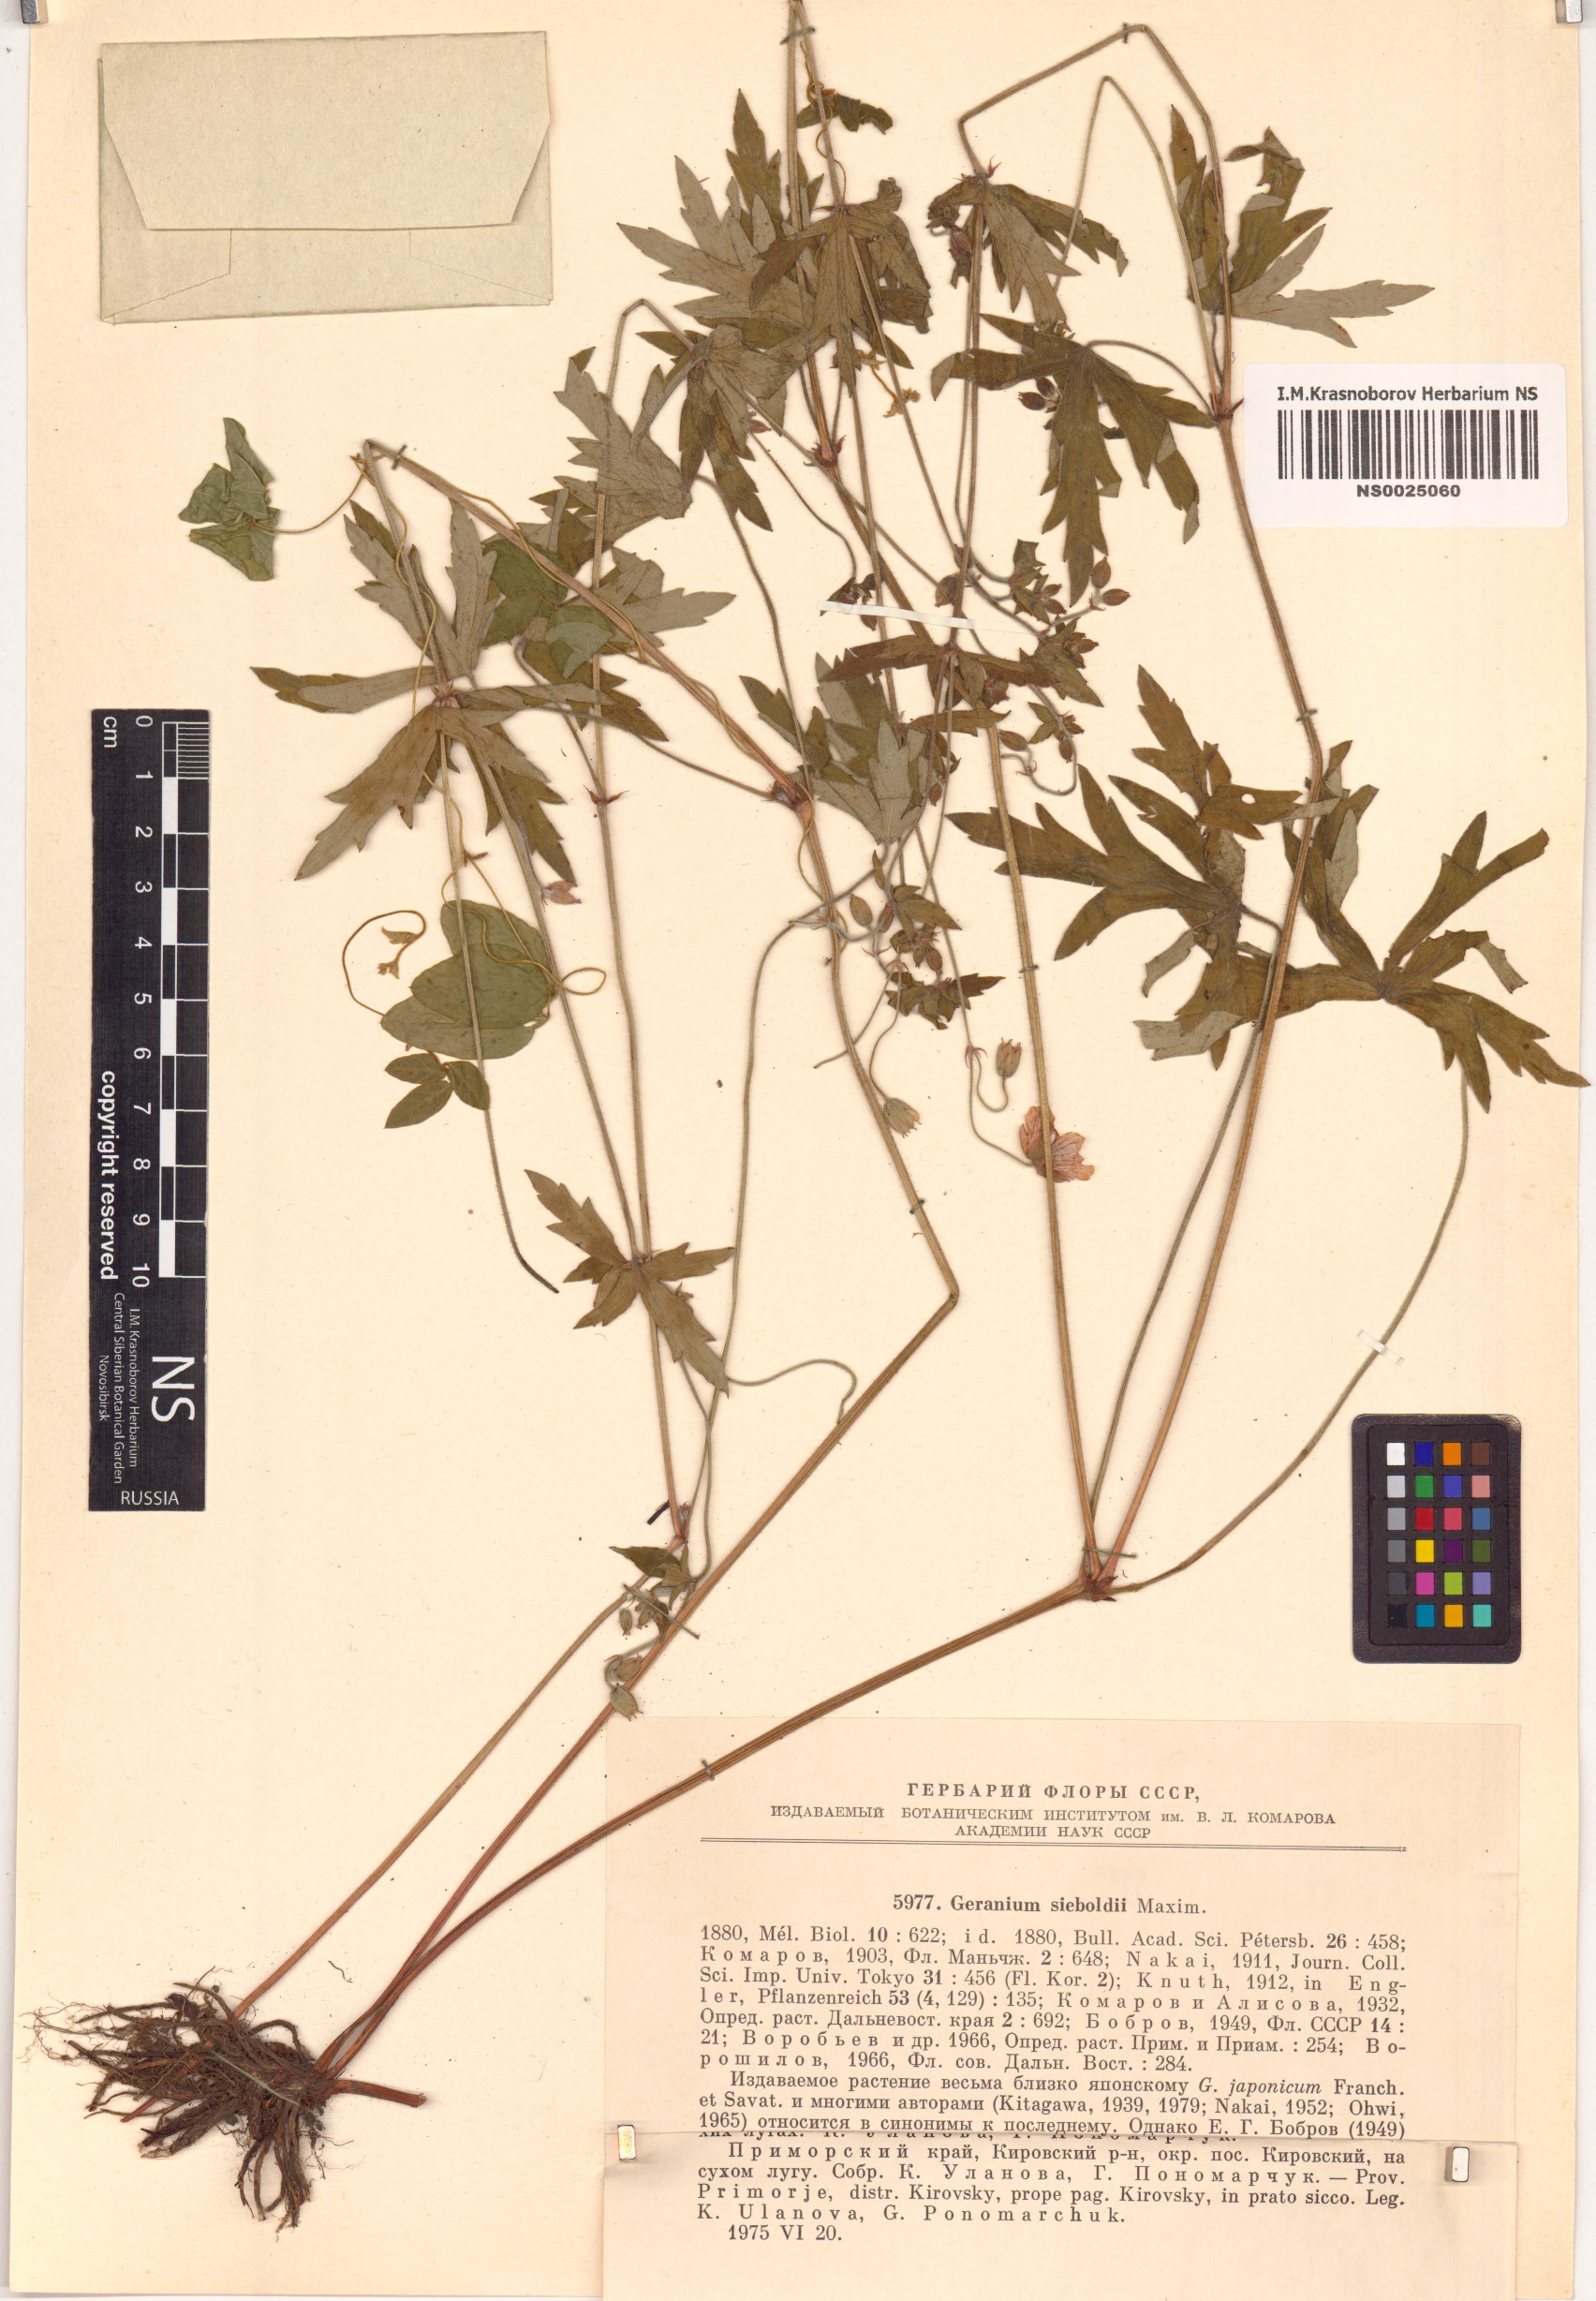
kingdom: Plantae
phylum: Tracheophyta
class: Magnoliopsida
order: Geraniales
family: Geraniaceae
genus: Geranium
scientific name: Geranium krameri
